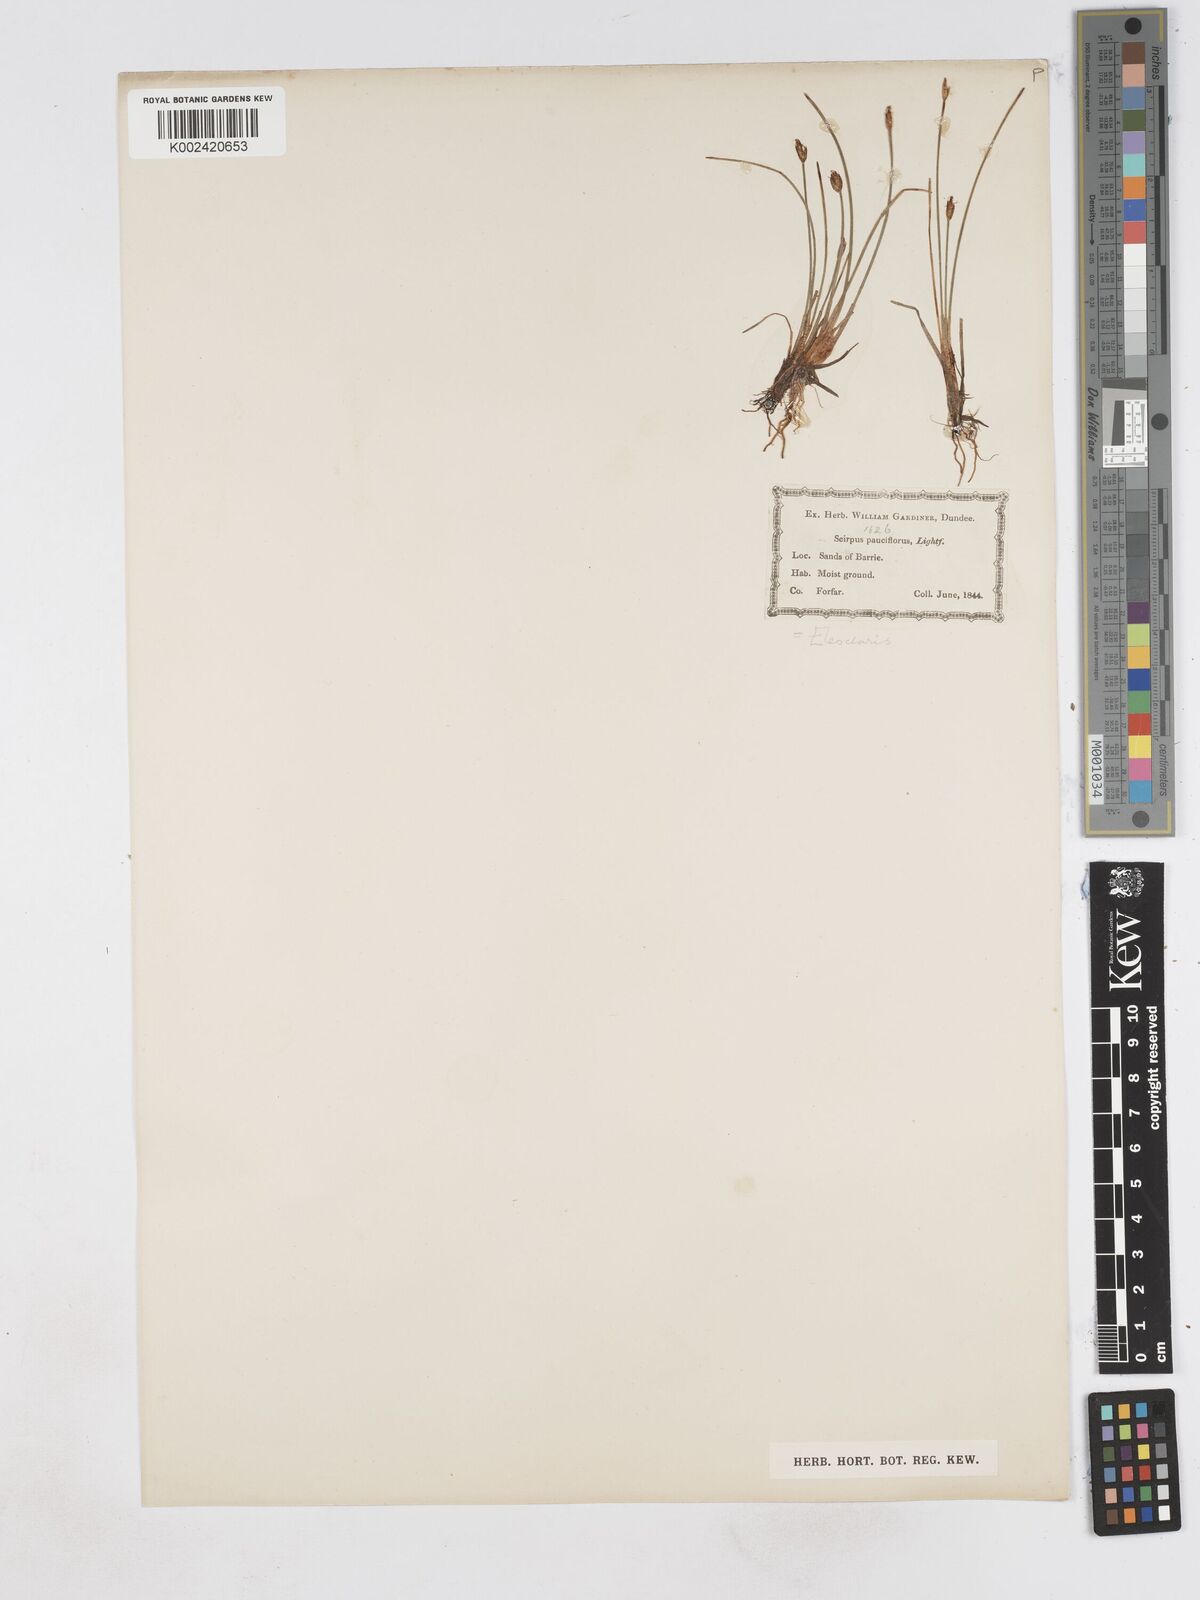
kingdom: Plantae
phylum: Tracheophyta
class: Liliopsida
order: Poales
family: Cyperaceae
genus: Eleocharis
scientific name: Eleocharis quinqueflora
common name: Few-flowered spike-rush
